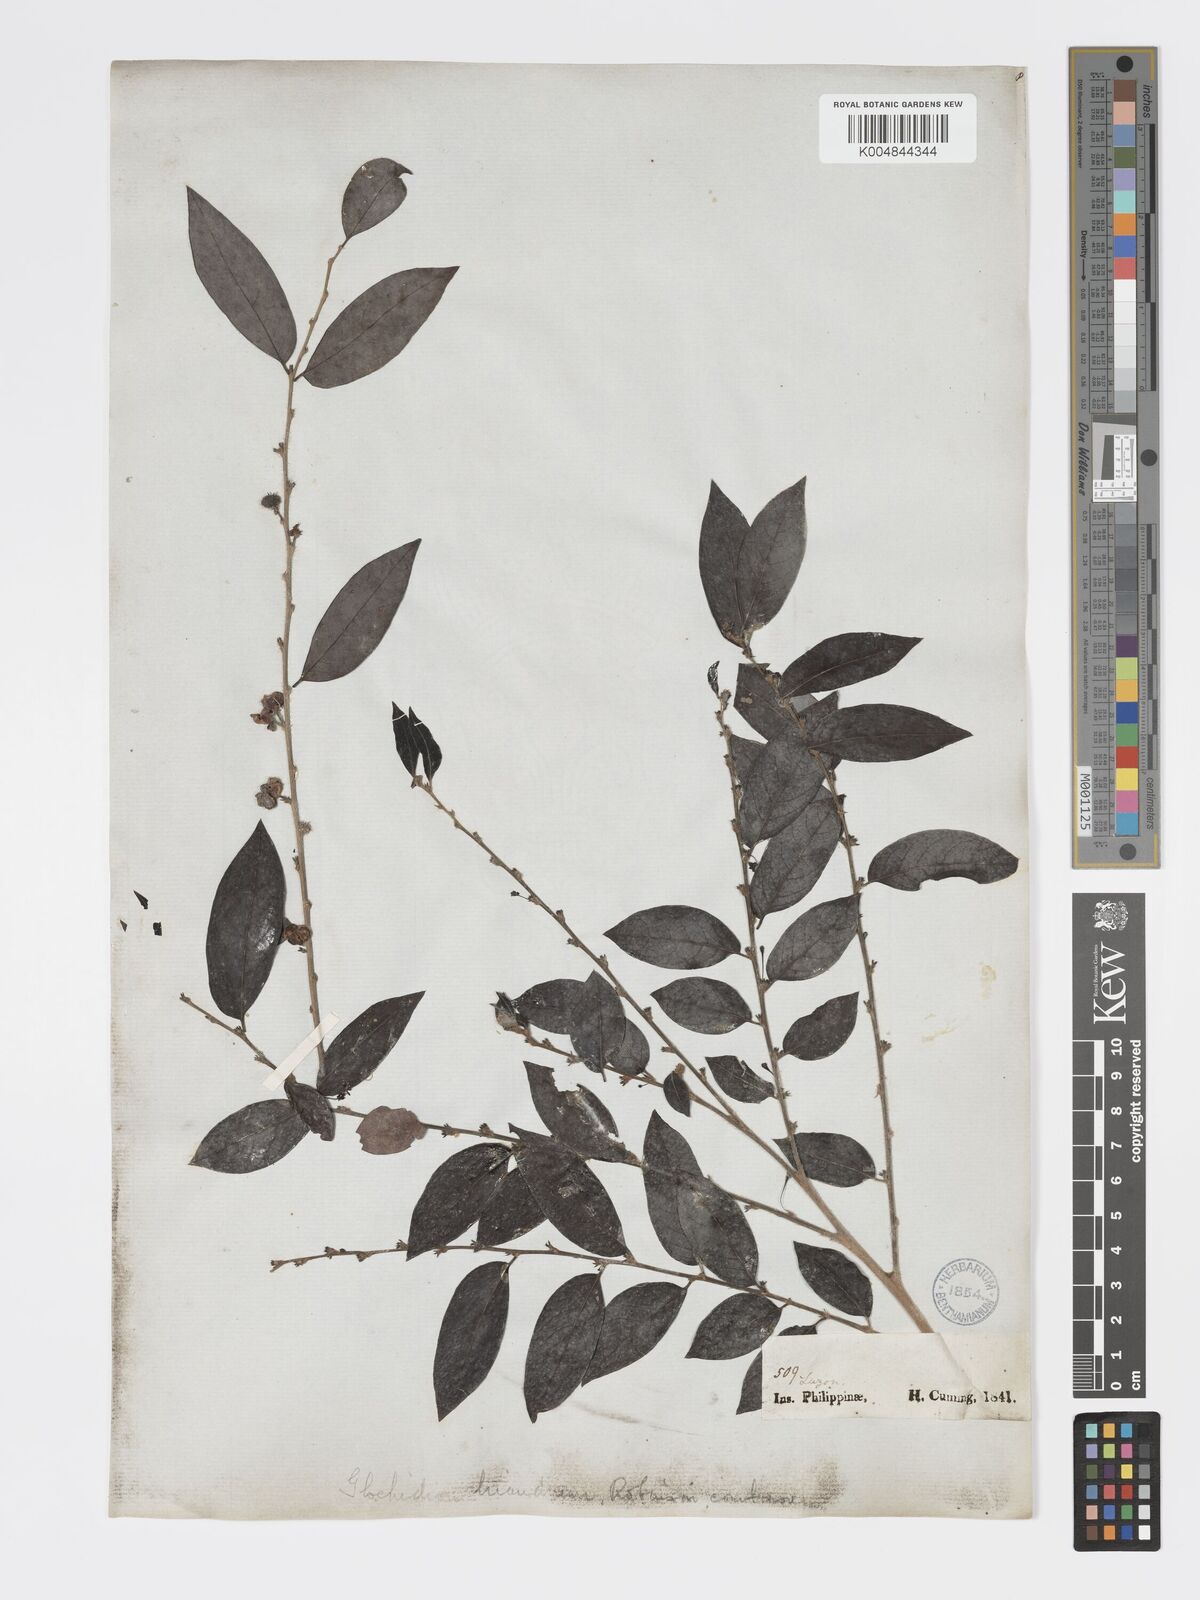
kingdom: Plantae
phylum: Tracheophyta
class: Magnoliopsida
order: Malpighiales
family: Phyllanthaceae
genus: Glochidion
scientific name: Glochidion triandrum
